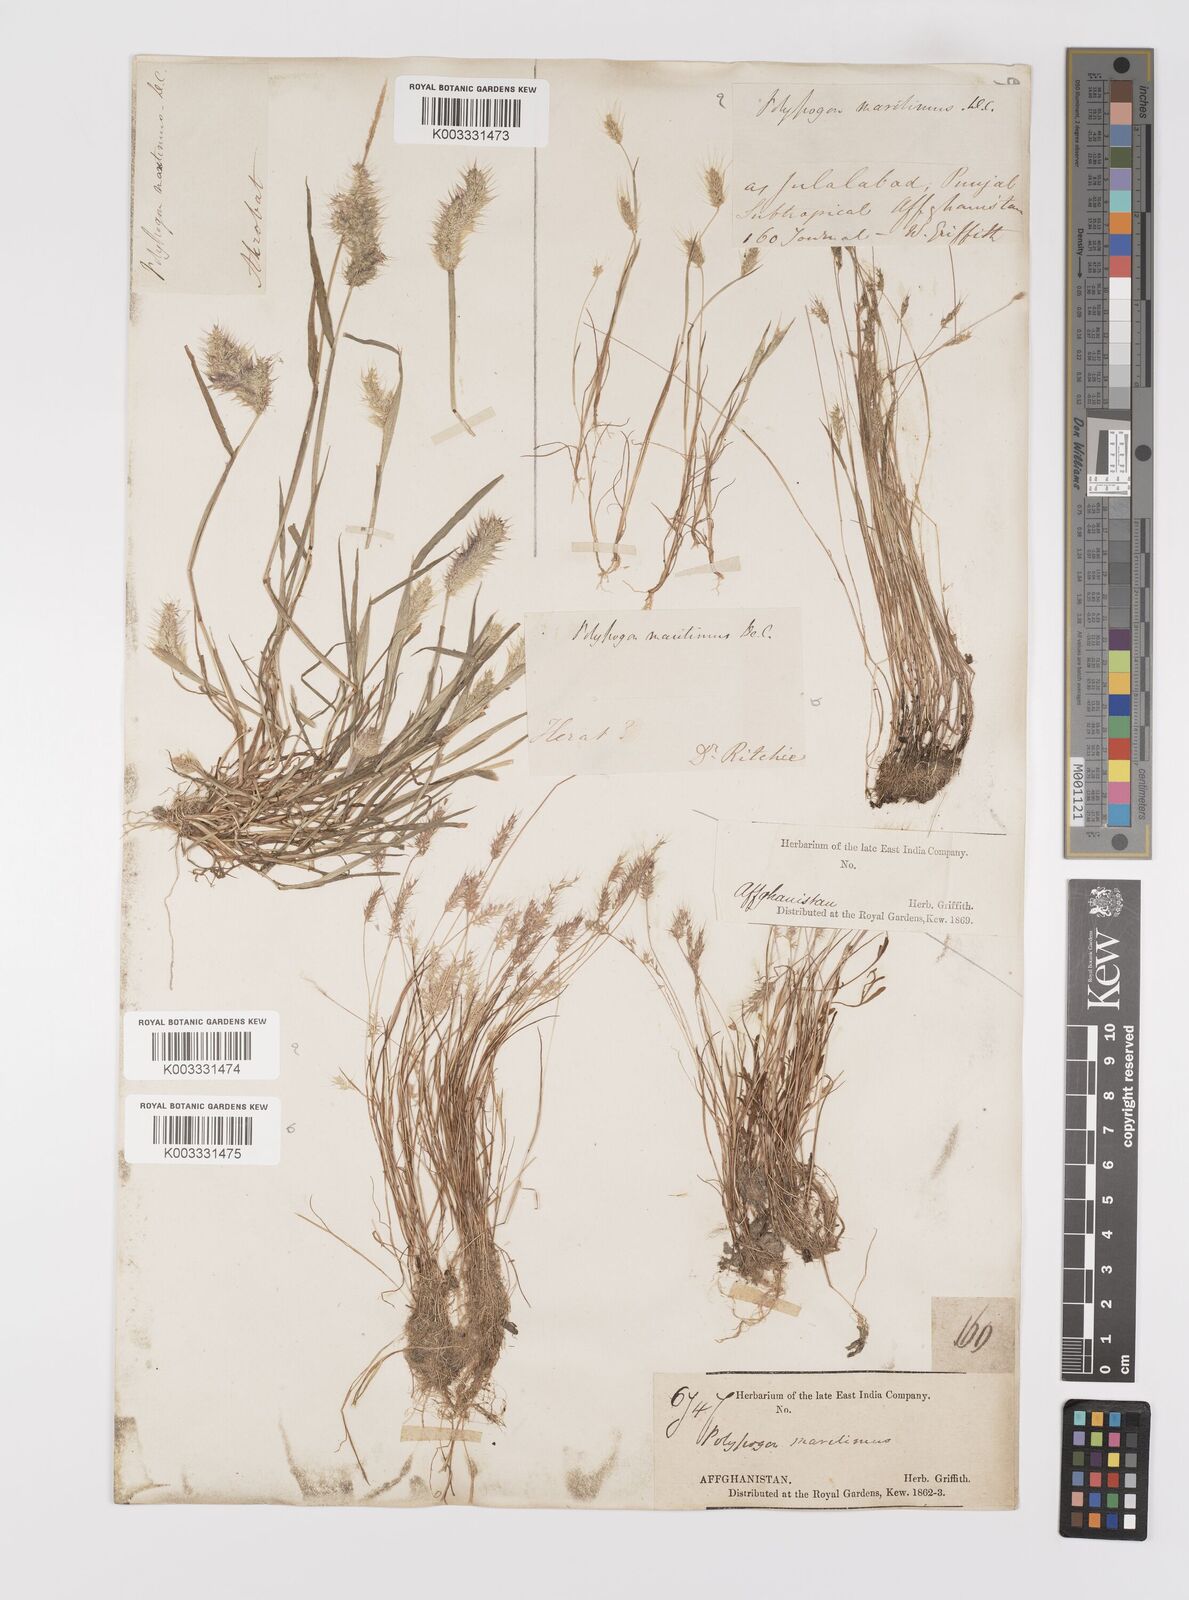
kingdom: Plantae
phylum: Tracheophyta
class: Liliopsida
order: Poales
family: Poaceae
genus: Polypogon
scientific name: Polypogon maritimus
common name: Mediterranean rabbitsfoot grass
